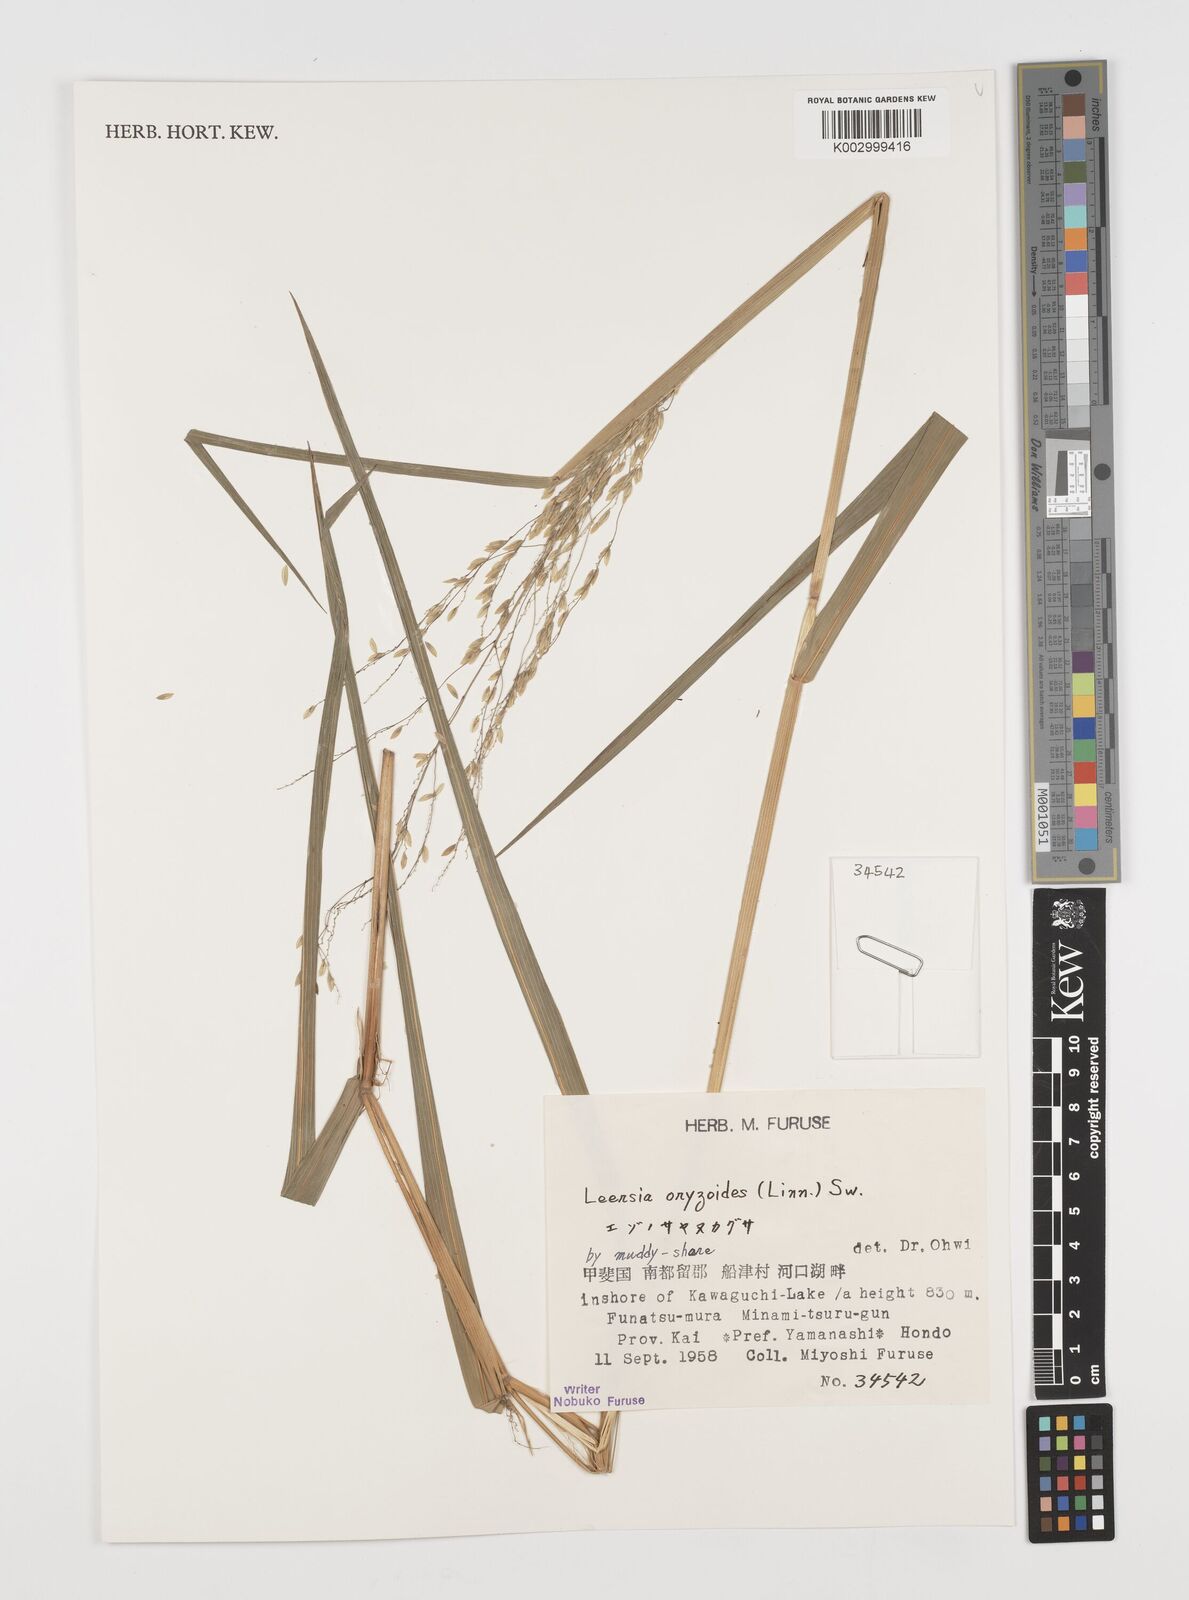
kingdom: Plantae
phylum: Tracheophyta
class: Liliopsida
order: Poales
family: Poaceae
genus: Leersia
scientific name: Leersia oryzoides
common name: Cut-grass
